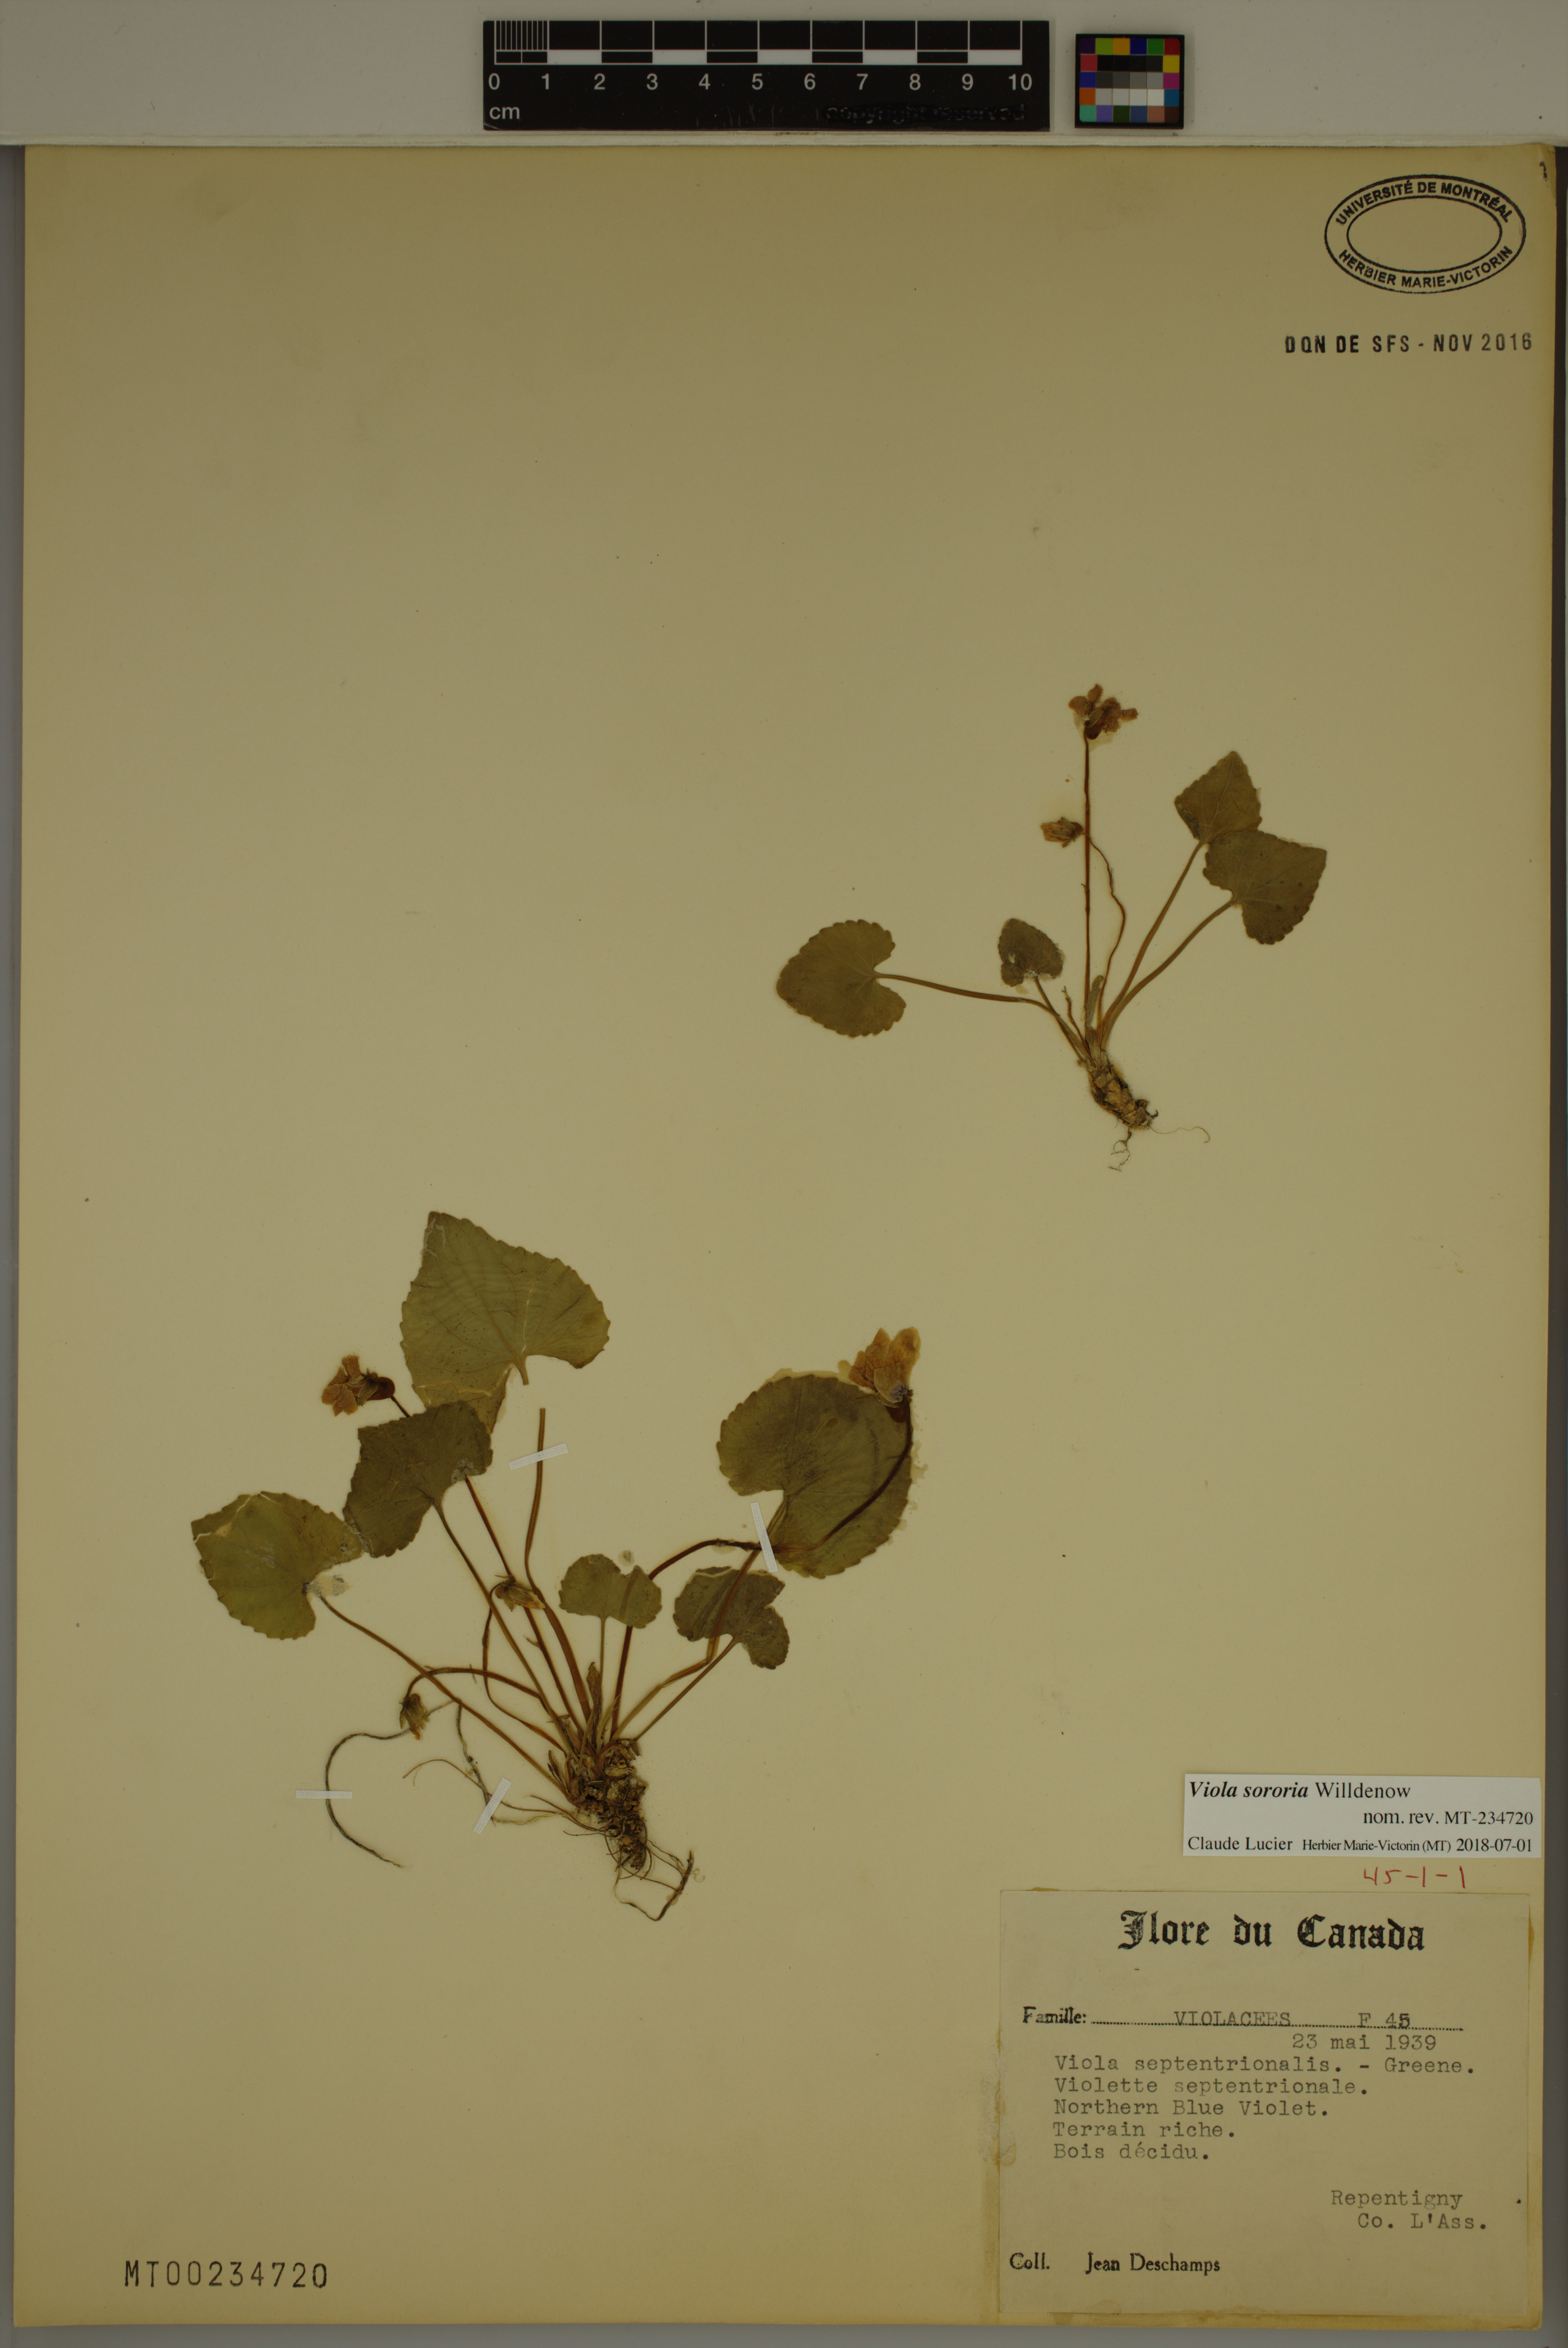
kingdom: Plantae
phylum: Tracheophyta
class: Magnoliopsida
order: Malpighiales
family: Violaceae
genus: Viola
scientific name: Viola sororia
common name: Dooryard violet
